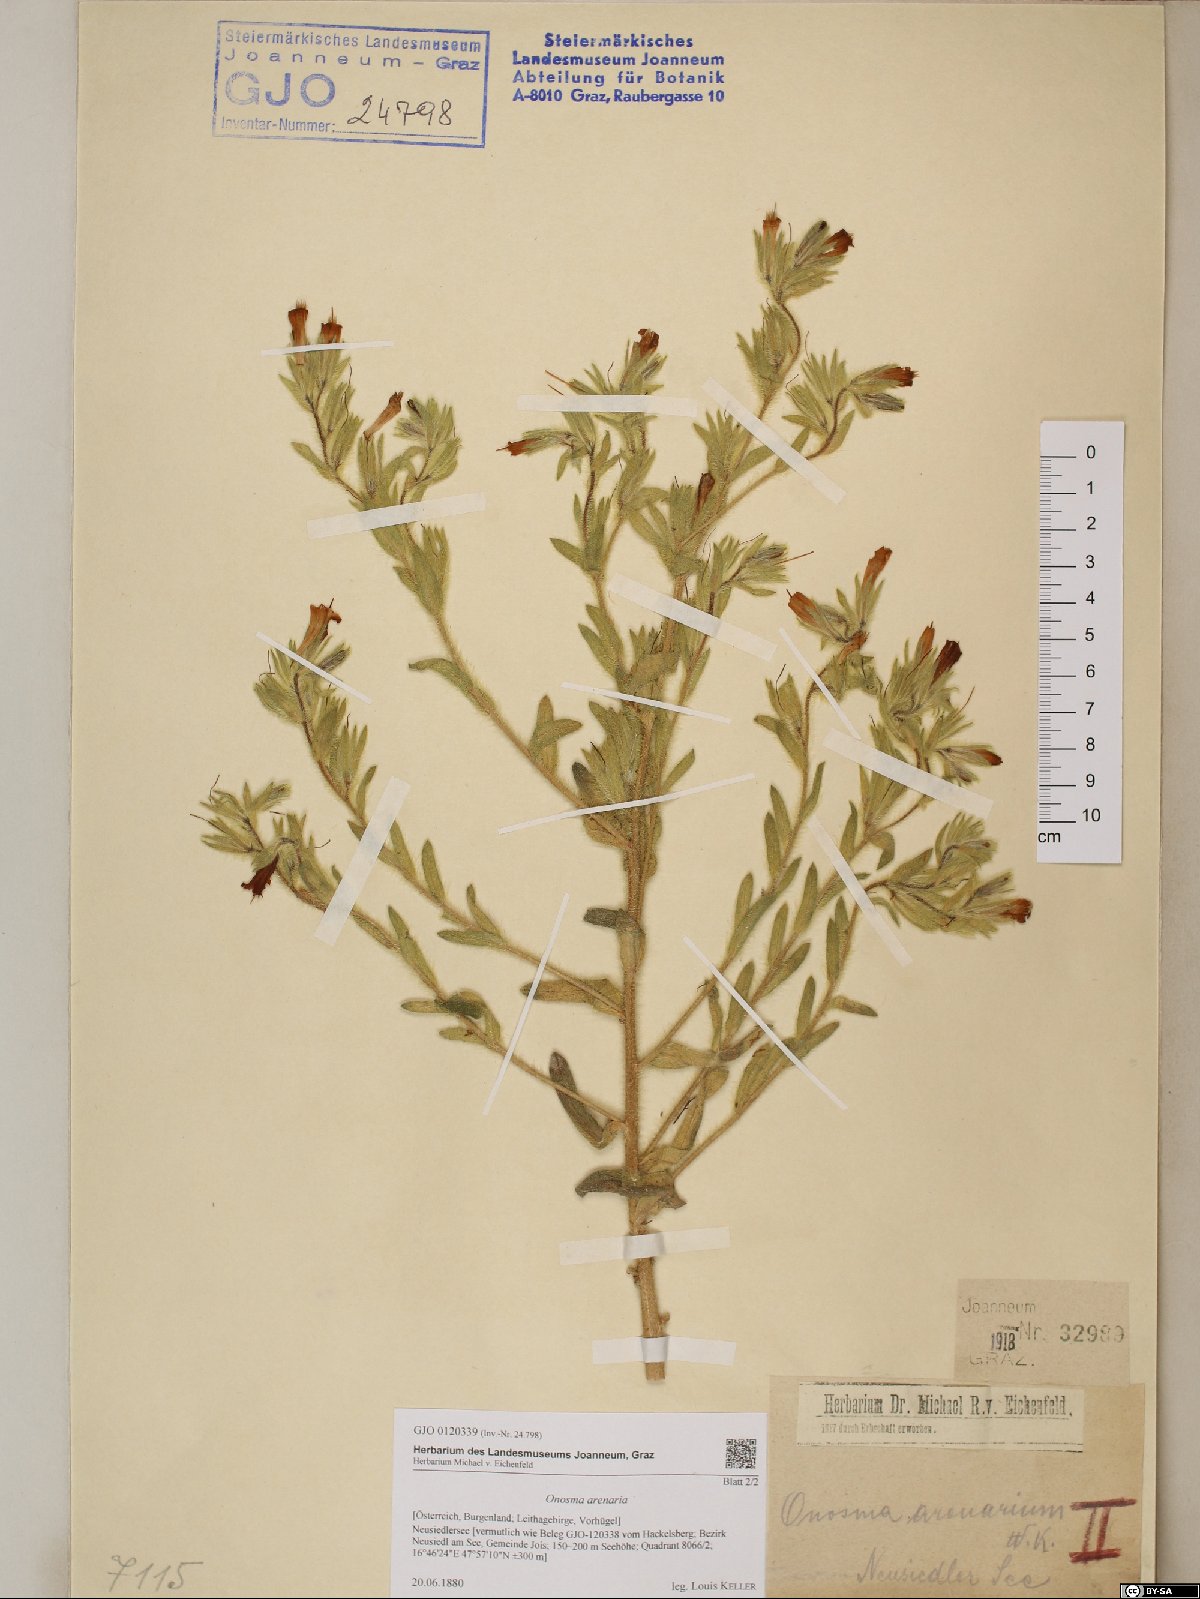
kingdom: Plantae
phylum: Tracheophyta
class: Magnoliopsida
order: Boraginales
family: Boraginaceae
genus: Onosma
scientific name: Onosma arenaria
